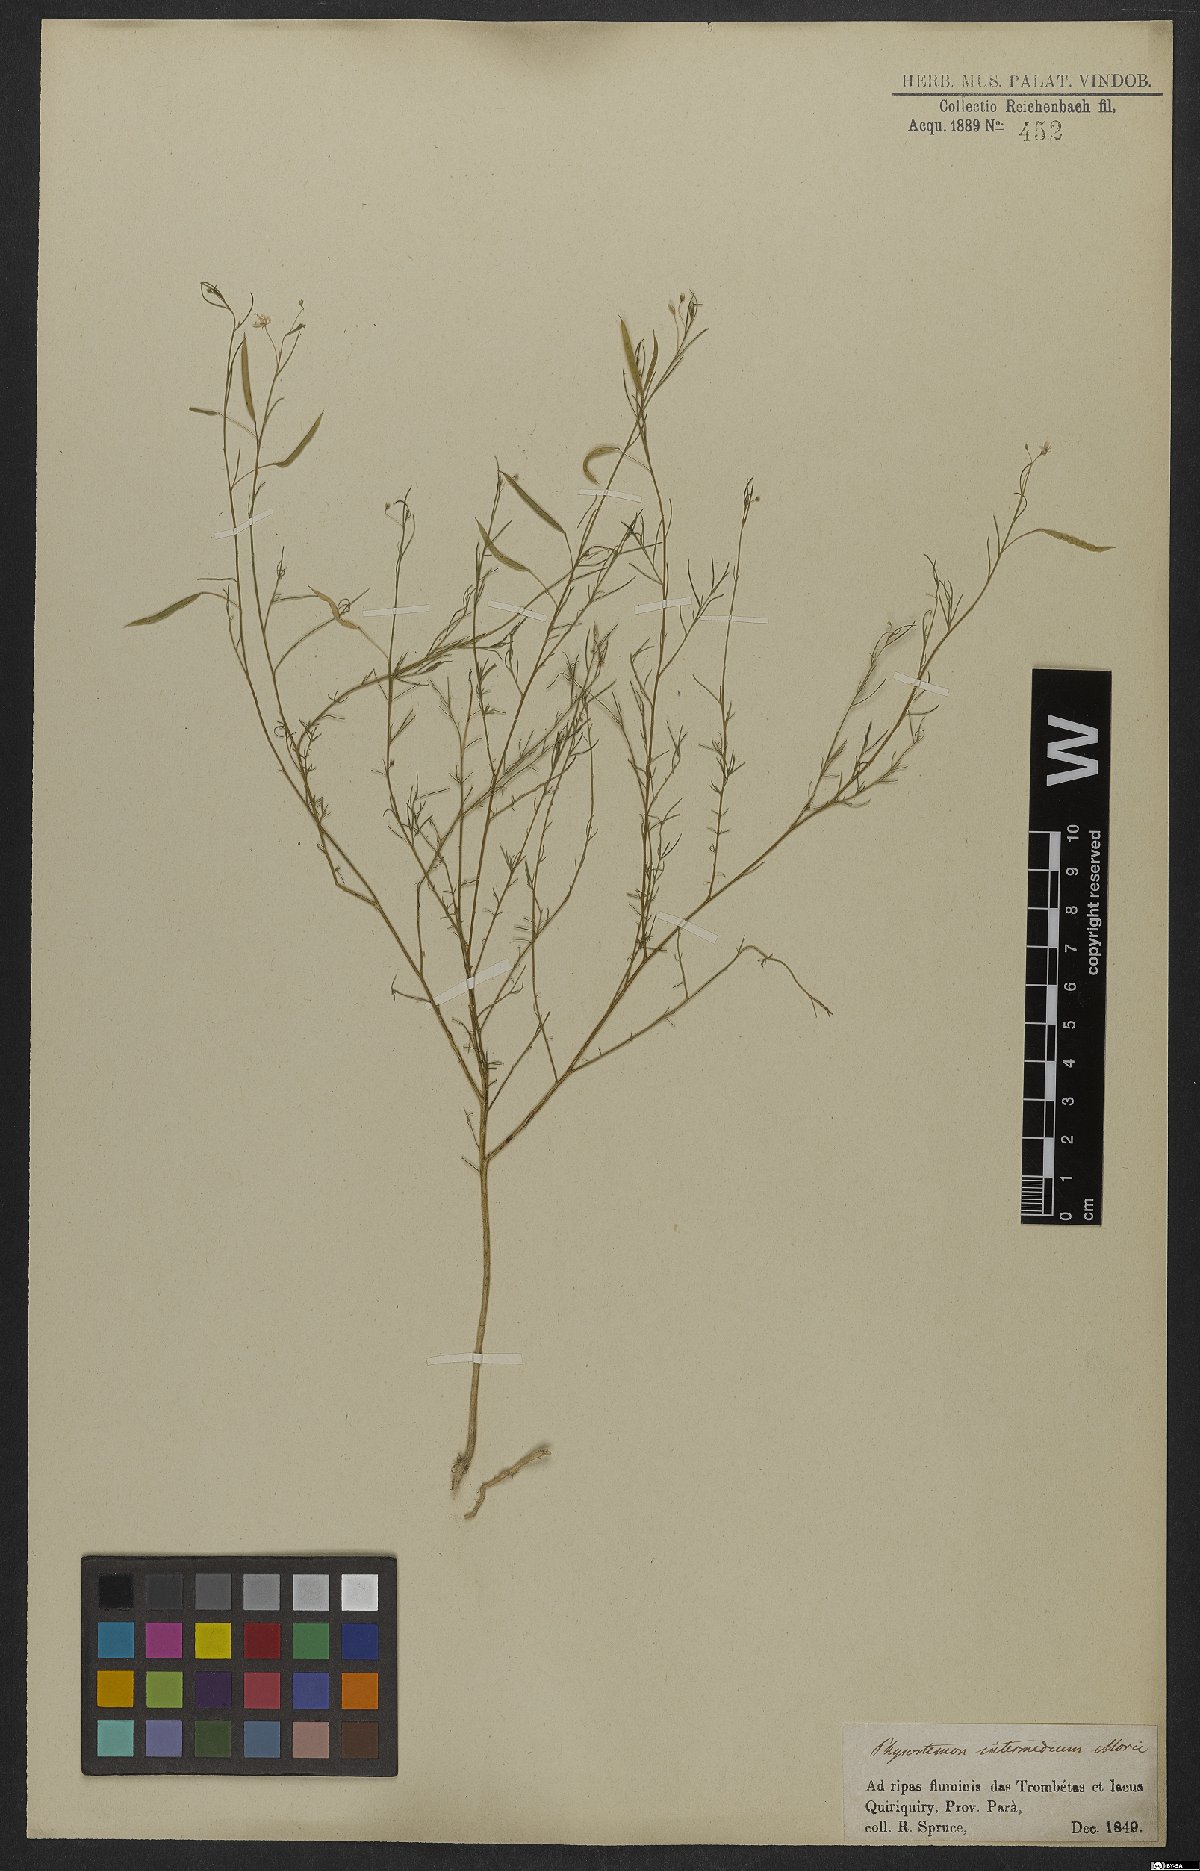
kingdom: Plantae
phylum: Tracheophyta
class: Magnoliopsida
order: Brassicales
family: Cleomaceae
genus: Andinocleome
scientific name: Andinocleome anomala
